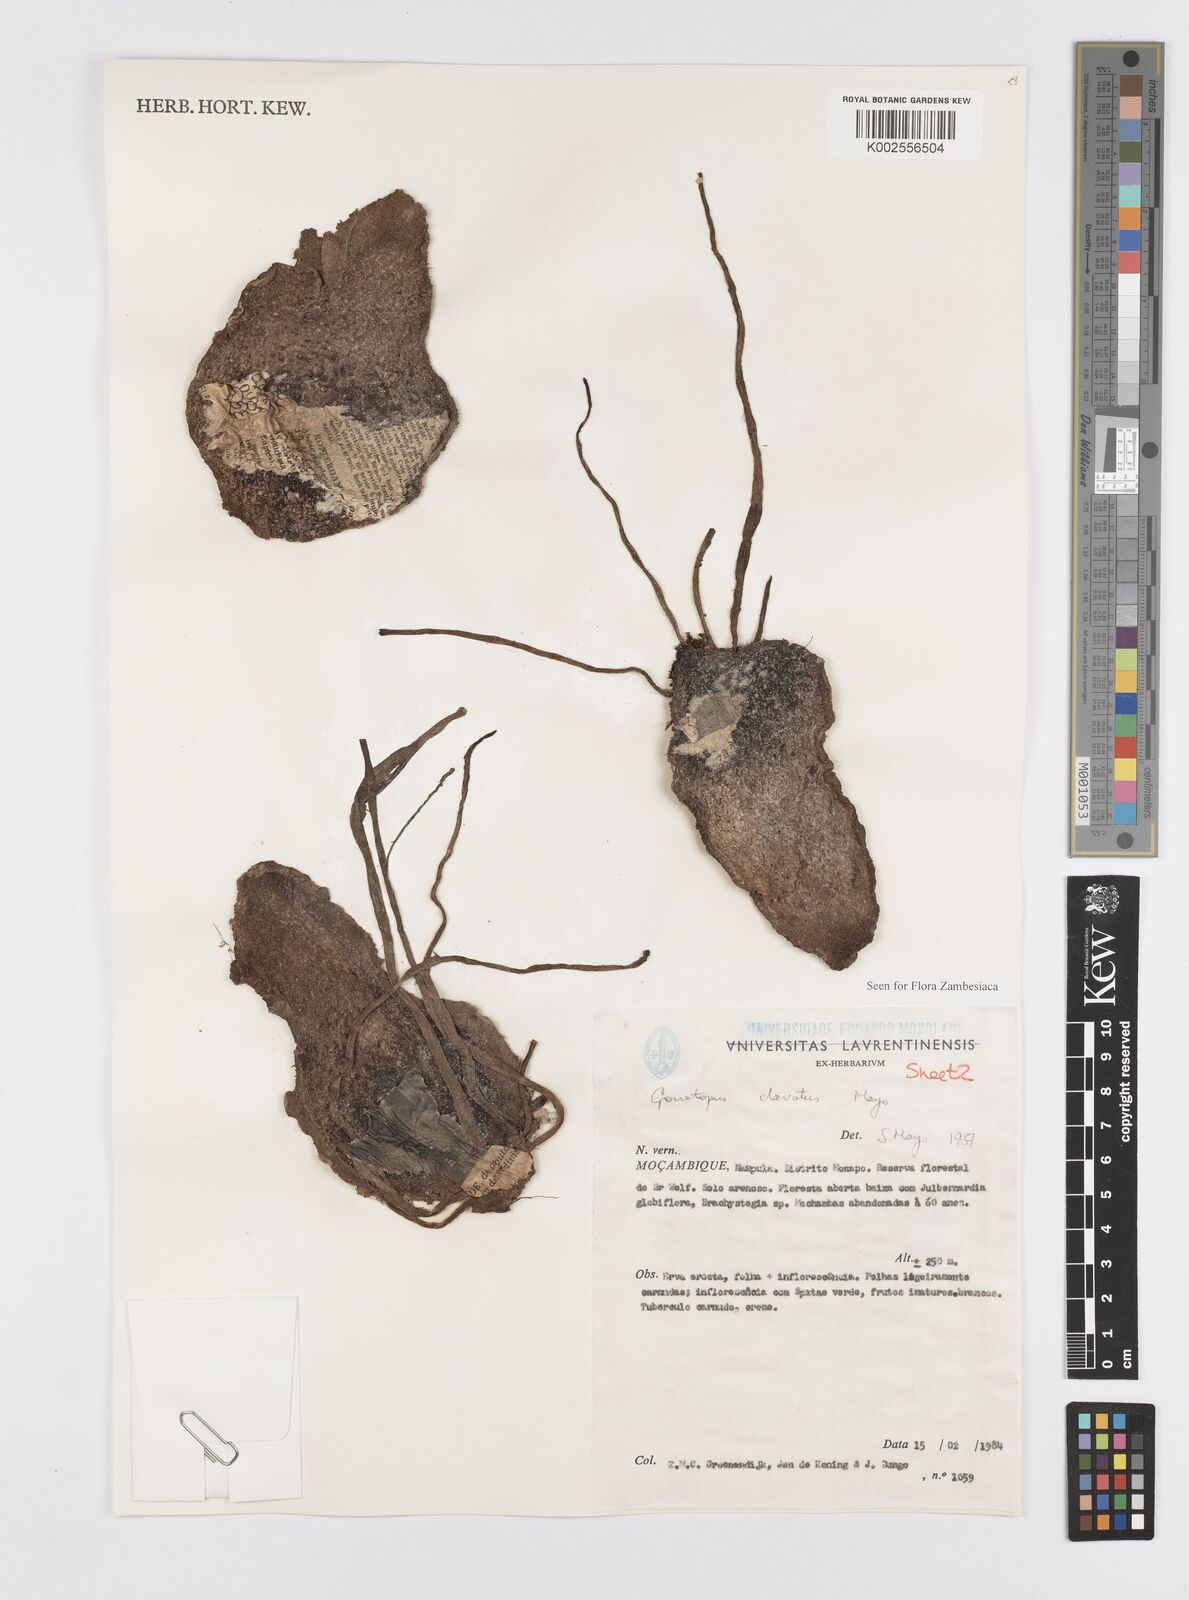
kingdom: Plantae
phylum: Tracheophyta
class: Liliopsida
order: Alismatales
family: Araceae
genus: Gonatopus
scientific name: Gonatopus clavatus
